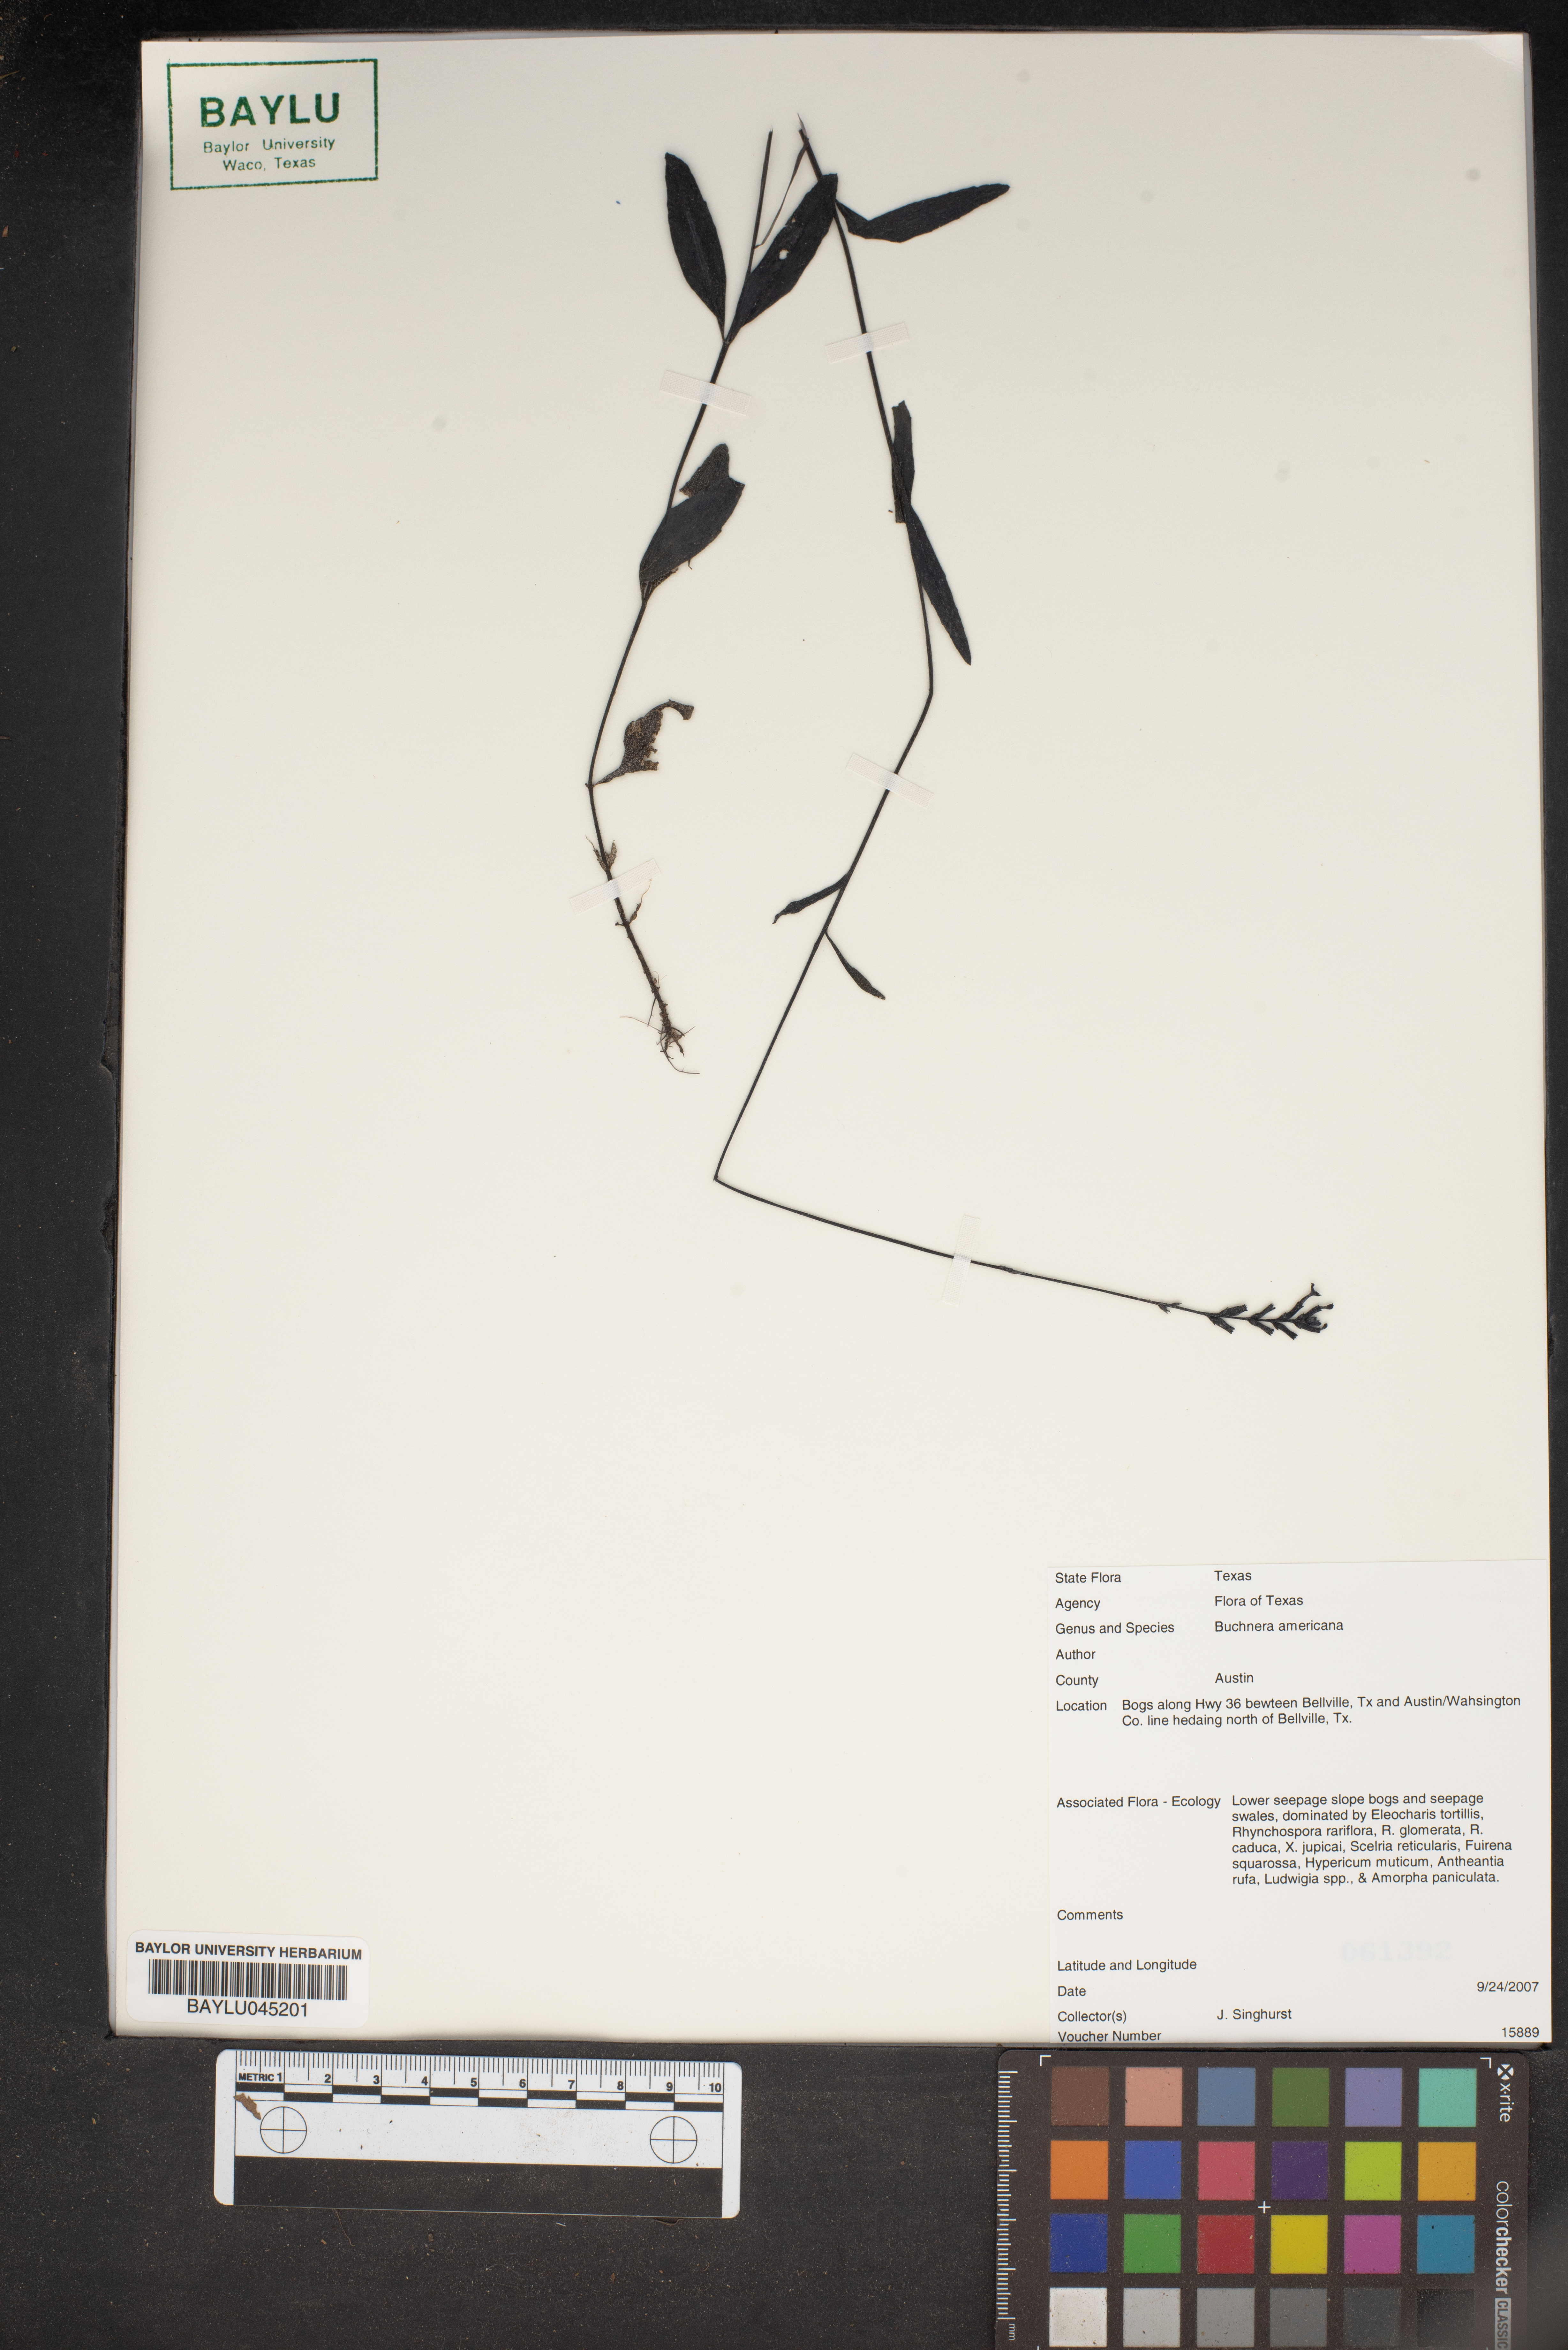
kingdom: Plantae
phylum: Tracheophyta
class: Magnoliopsida
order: Lamiales
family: Orobanchaceae
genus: Buchnera
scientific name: Buchnera americana
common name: American bluehearts
